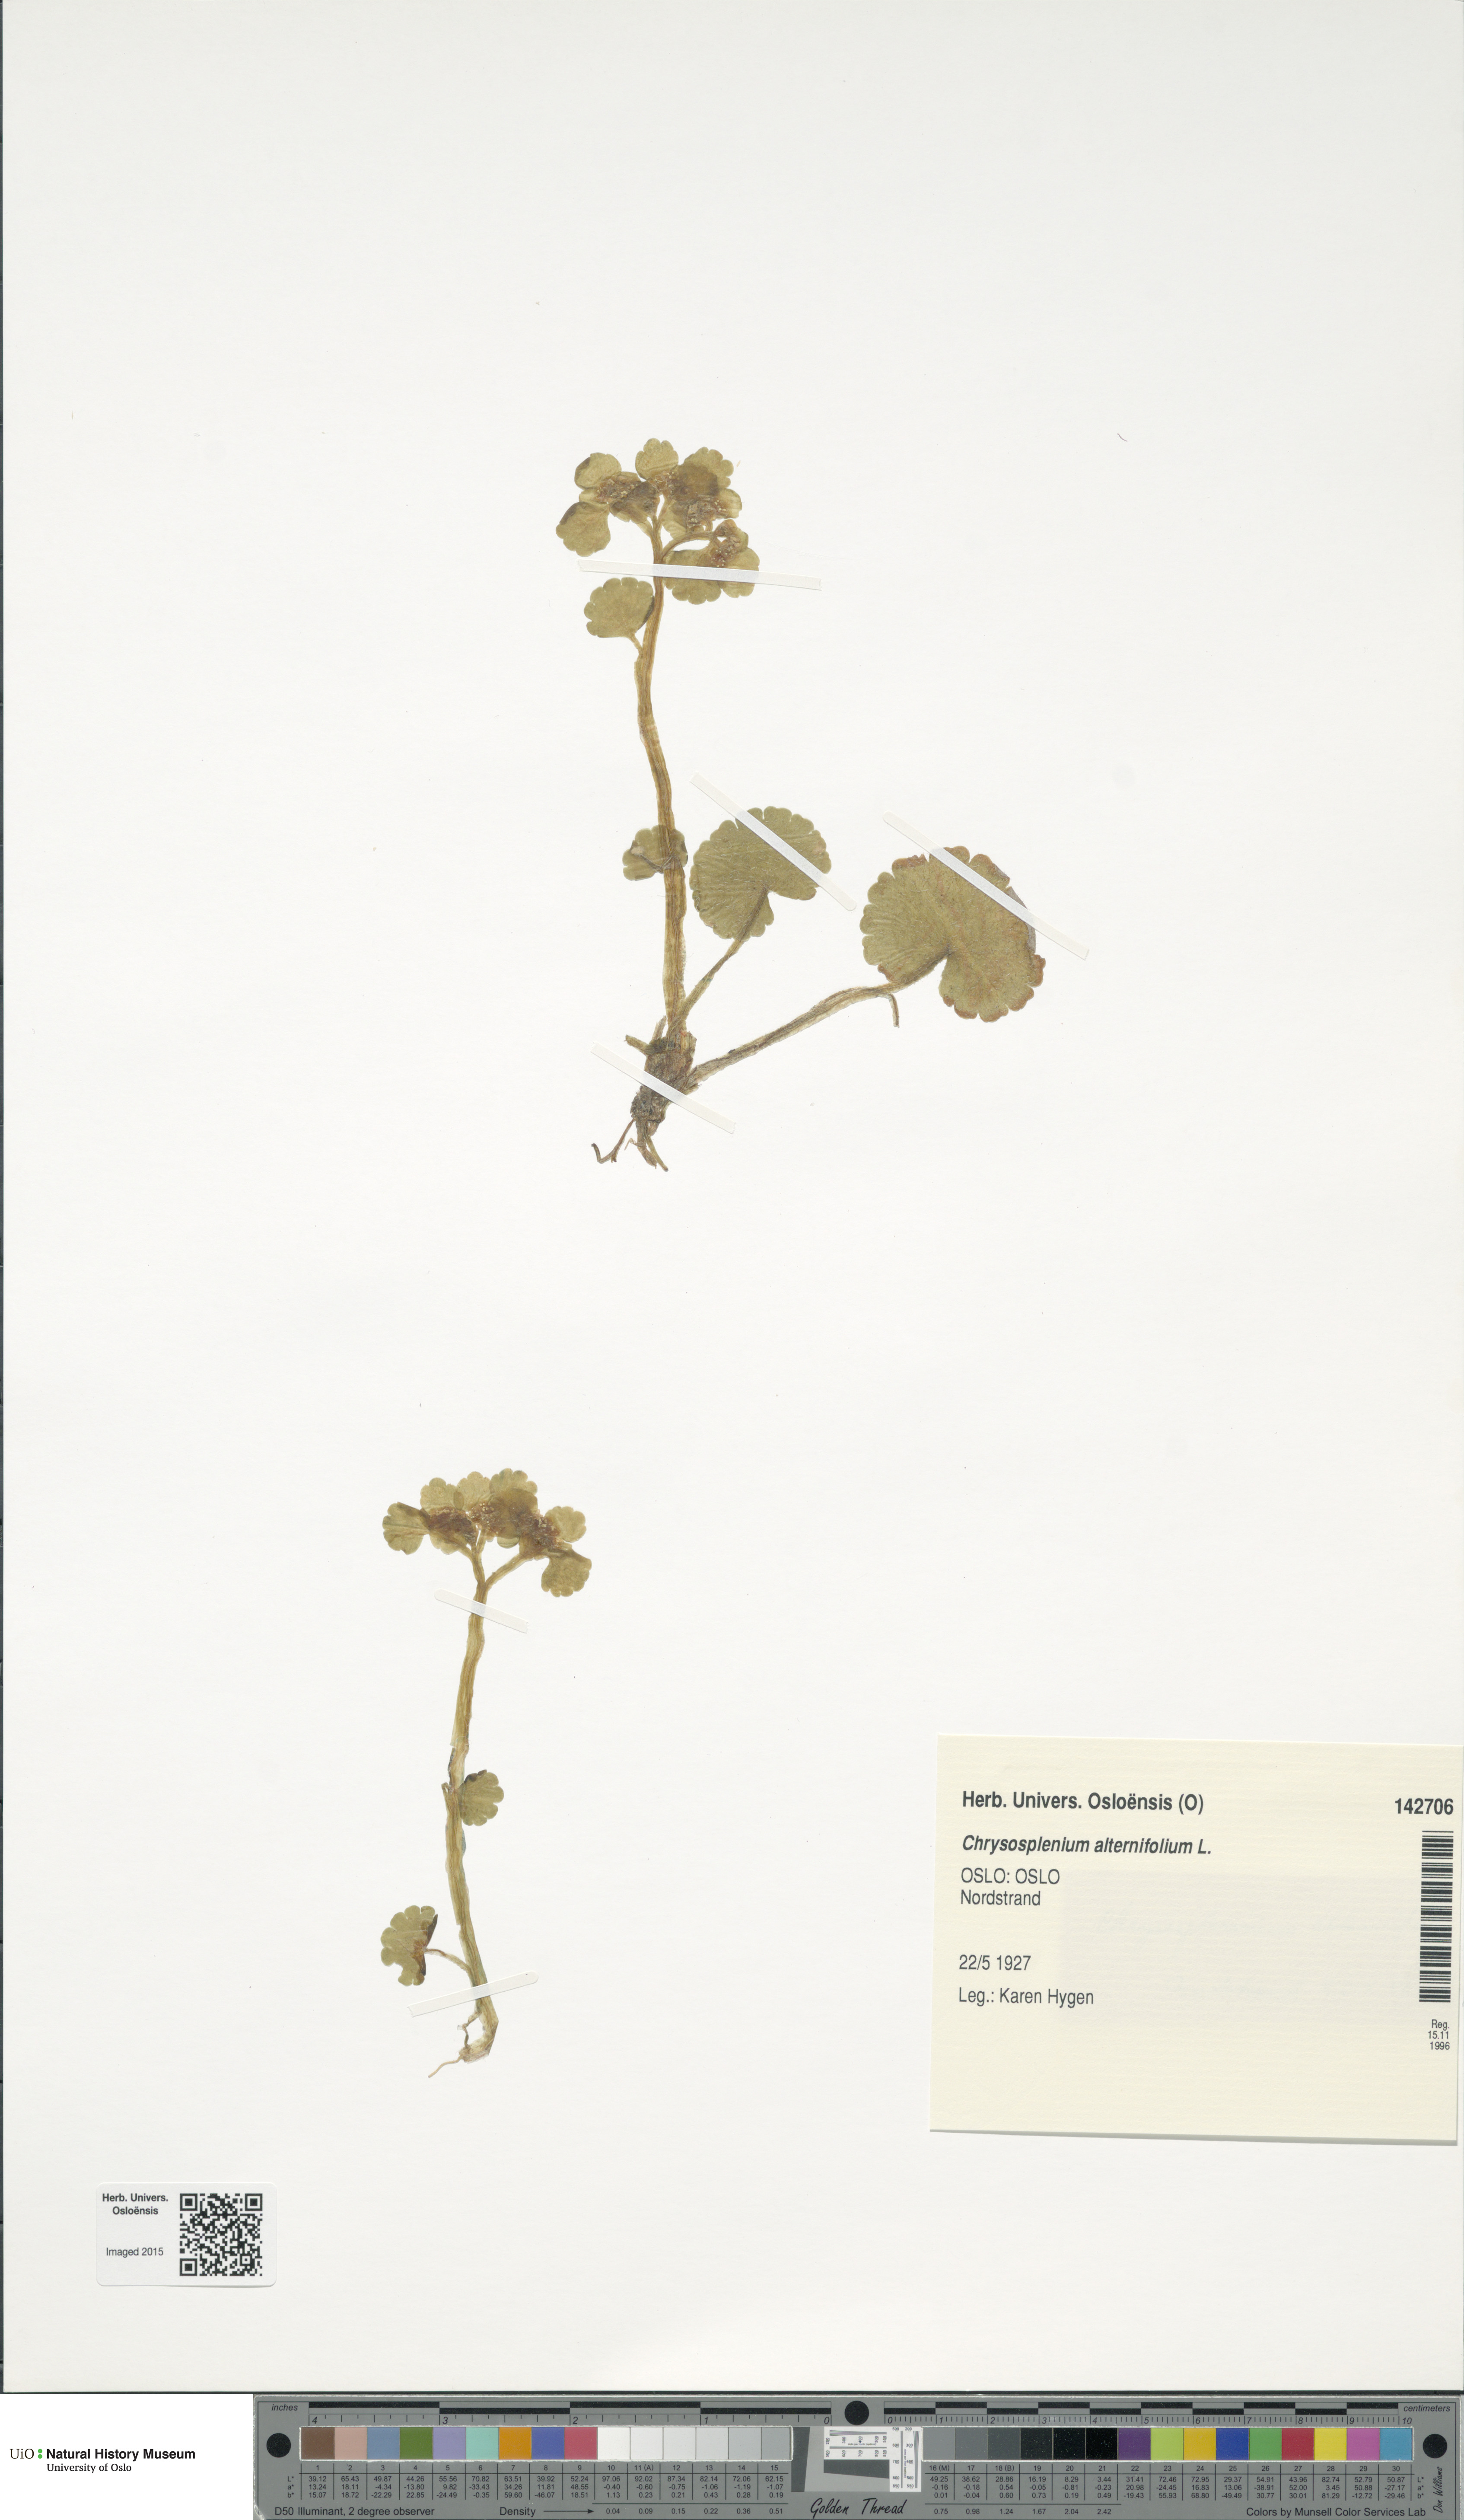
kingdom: Plantae
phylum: Tracheophyta
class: Magnoliopsida
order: Saxifragales
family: Saxifragaceae
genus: Chrysosplenium
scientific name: Chrysosplenium alternifolium
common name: Alternate-leaved golden-saxifrage
